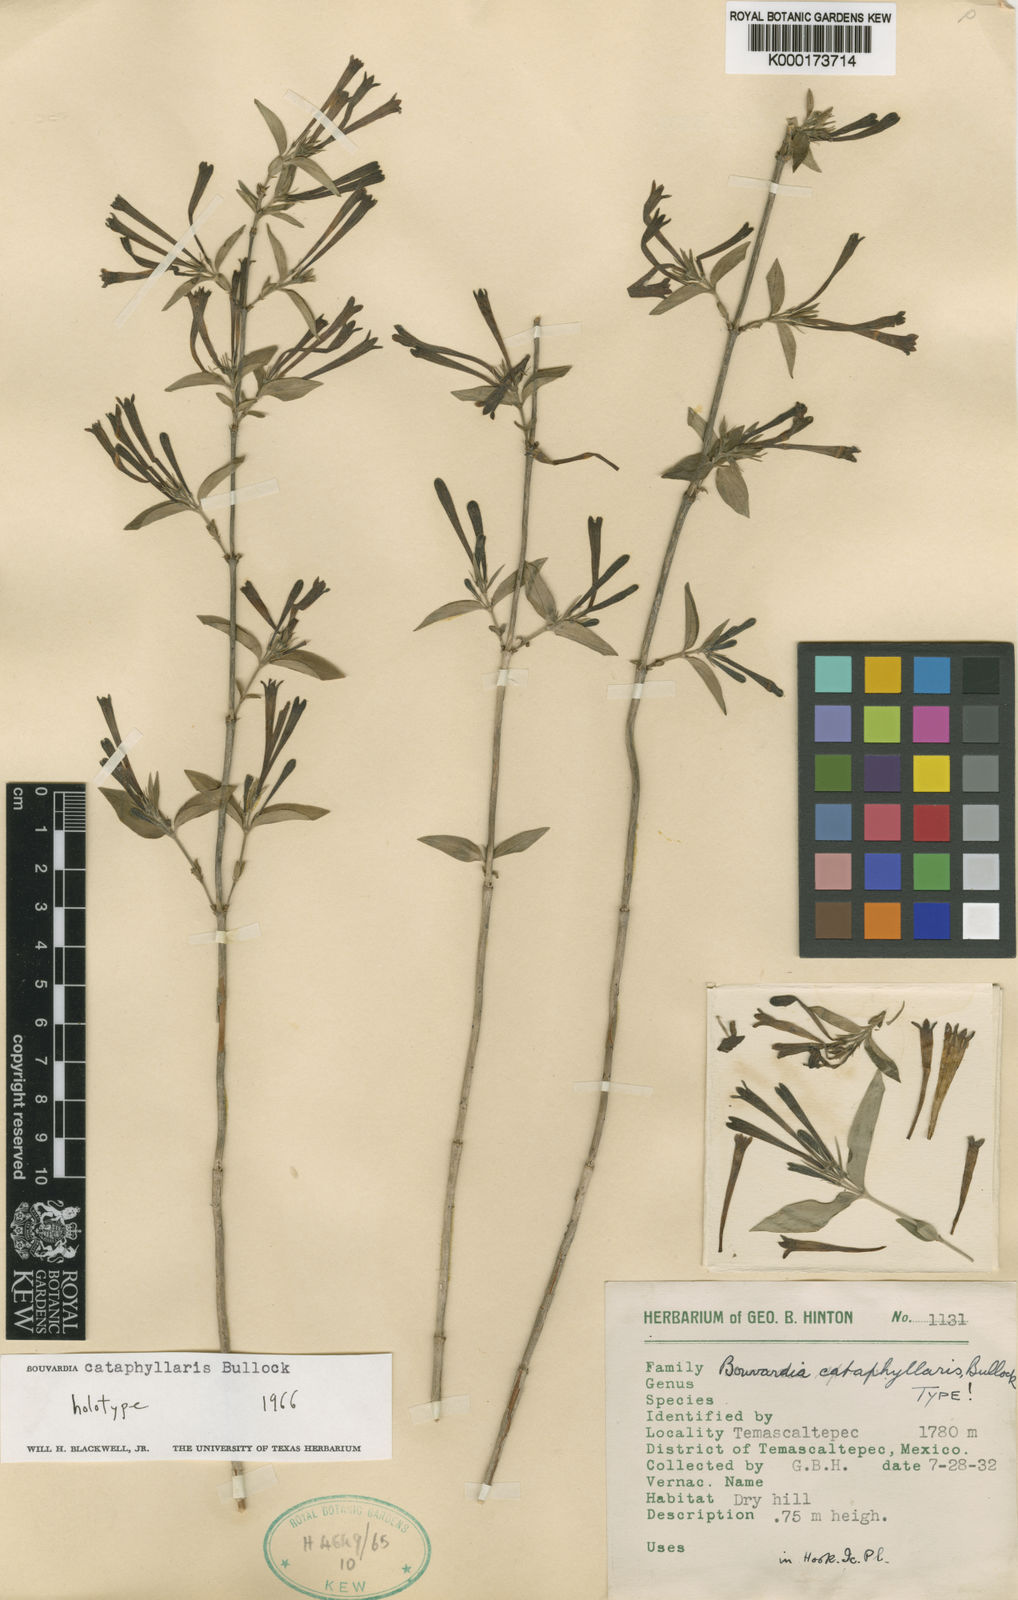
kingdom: Plantae
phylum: Tracheophyta
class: Magnoliopsida
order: Gentianales
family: Rubiaceae
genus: Bouvardia
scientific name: Bouvardia chrysantha
